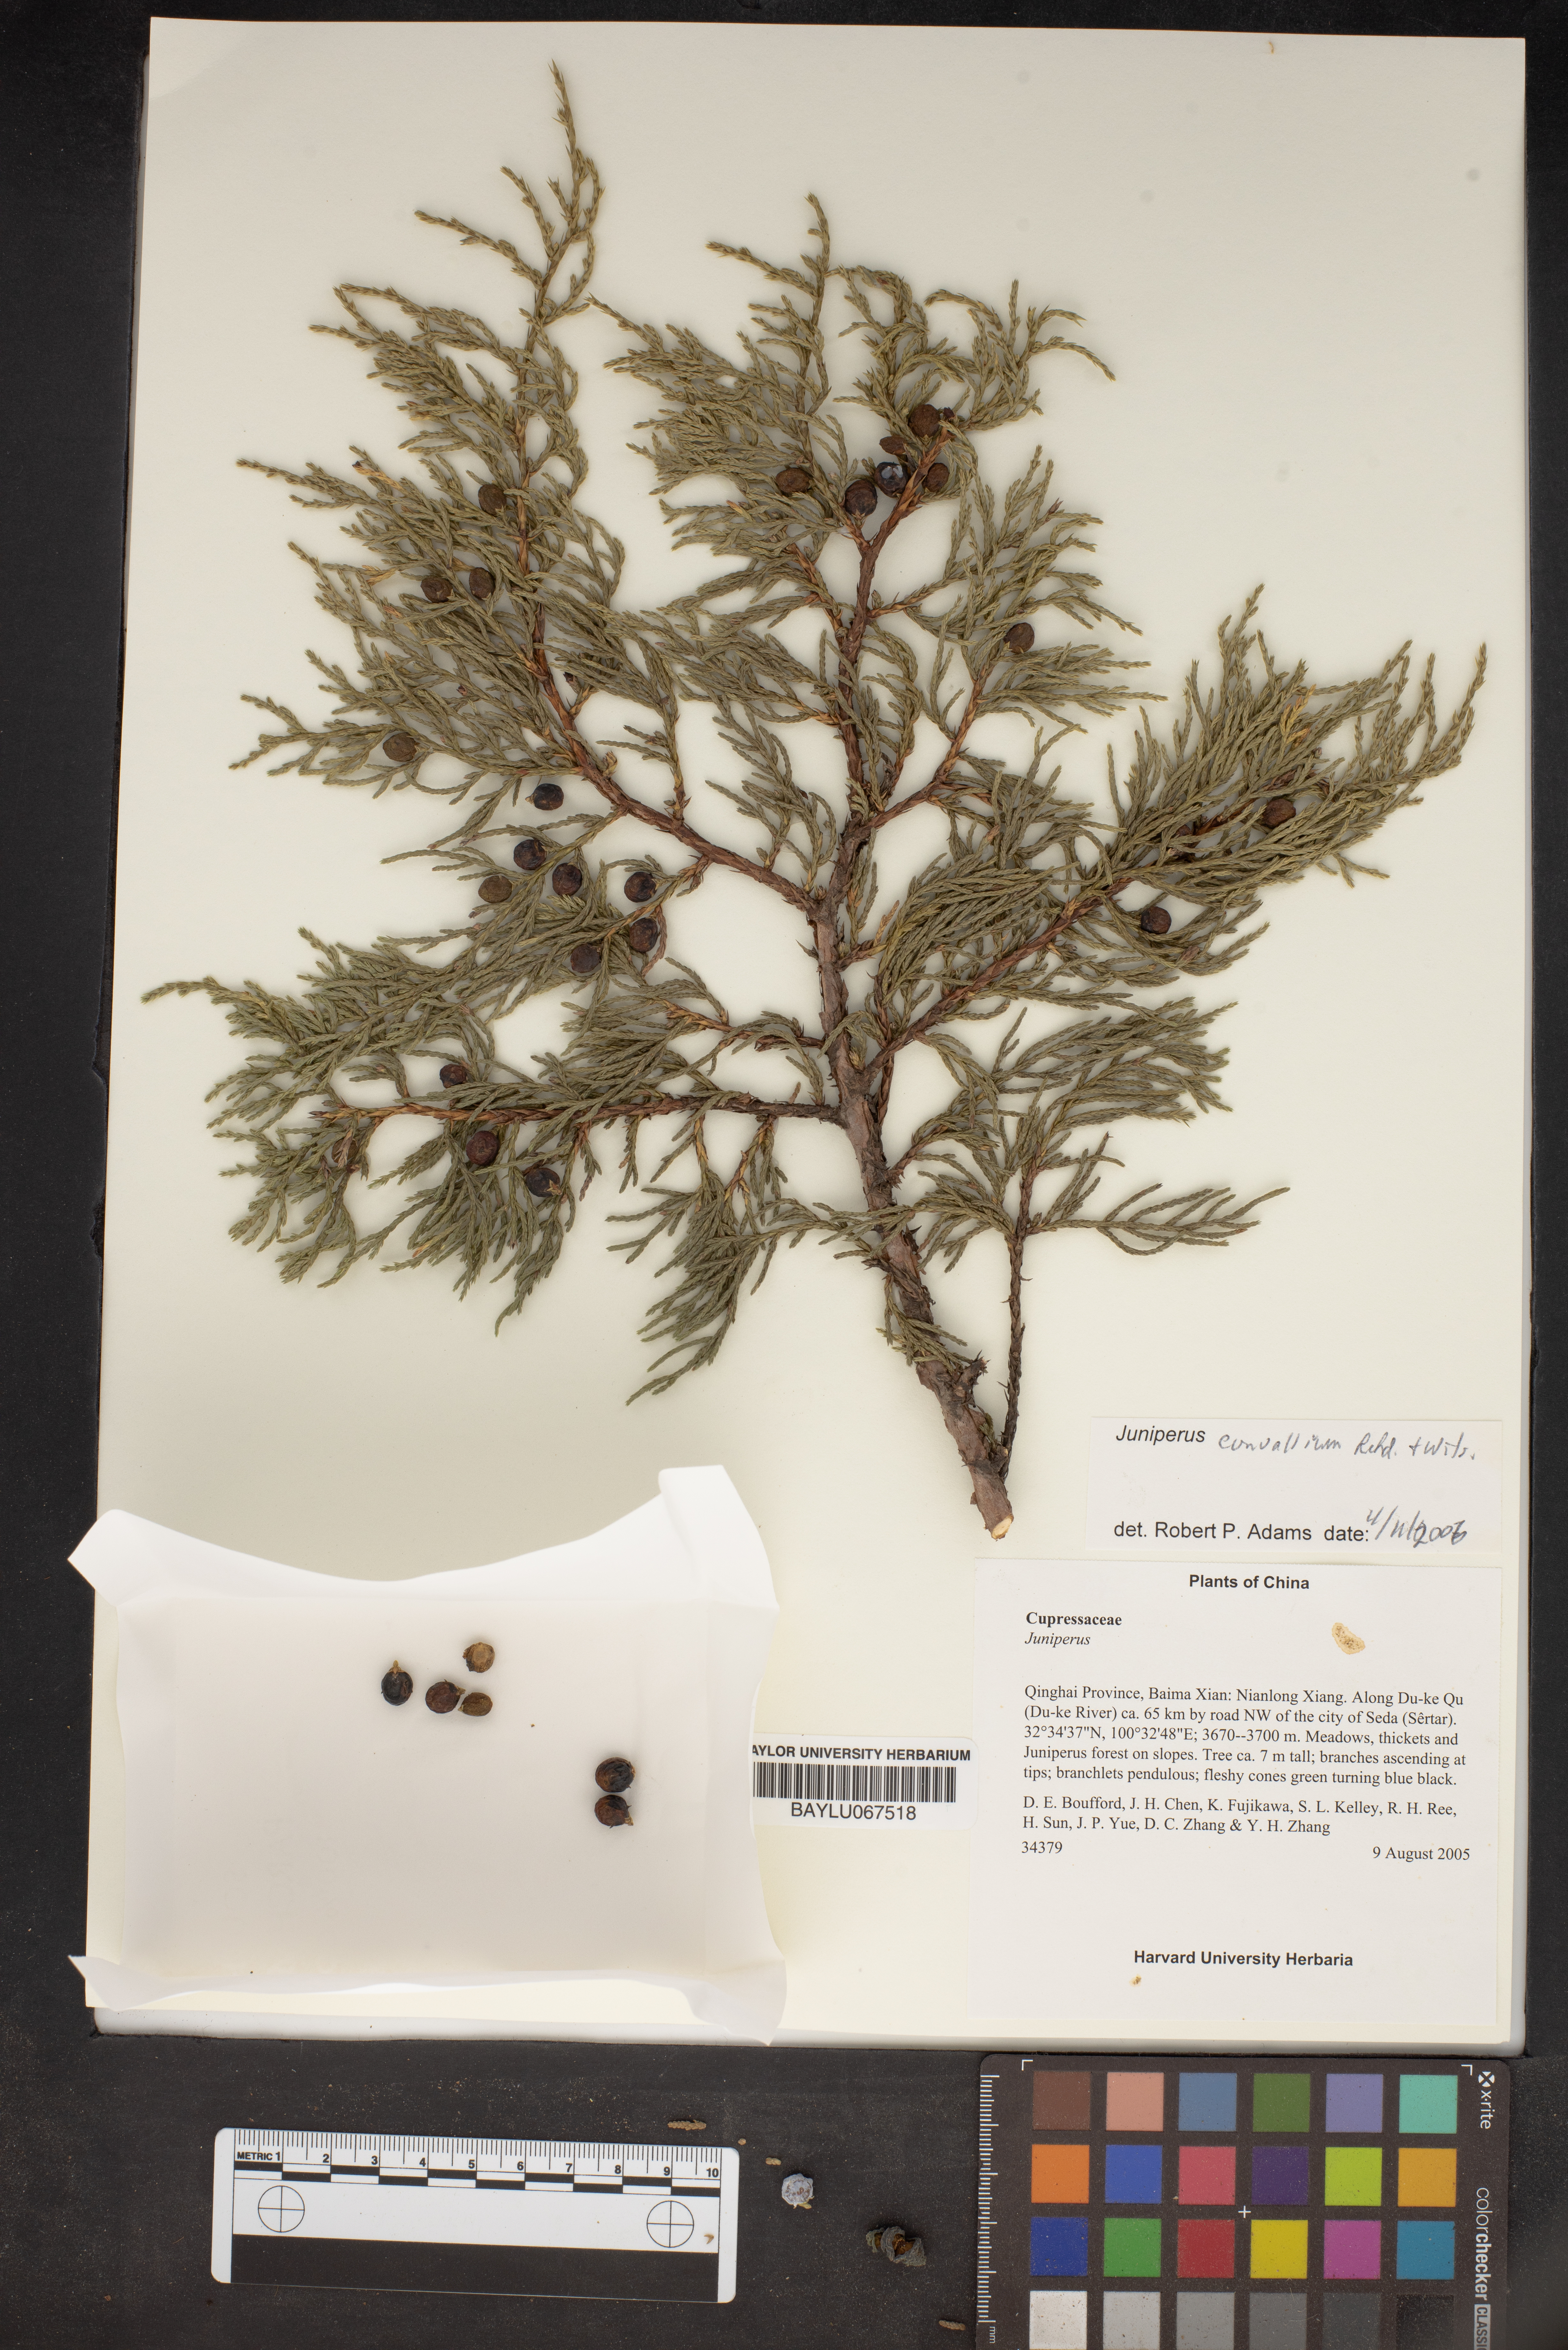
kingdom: Plantae
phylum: Tracheophyta
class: Pinopsida
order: Pinales
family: Cupressaceae
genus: Juniperus
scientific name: Juniperus convallium
